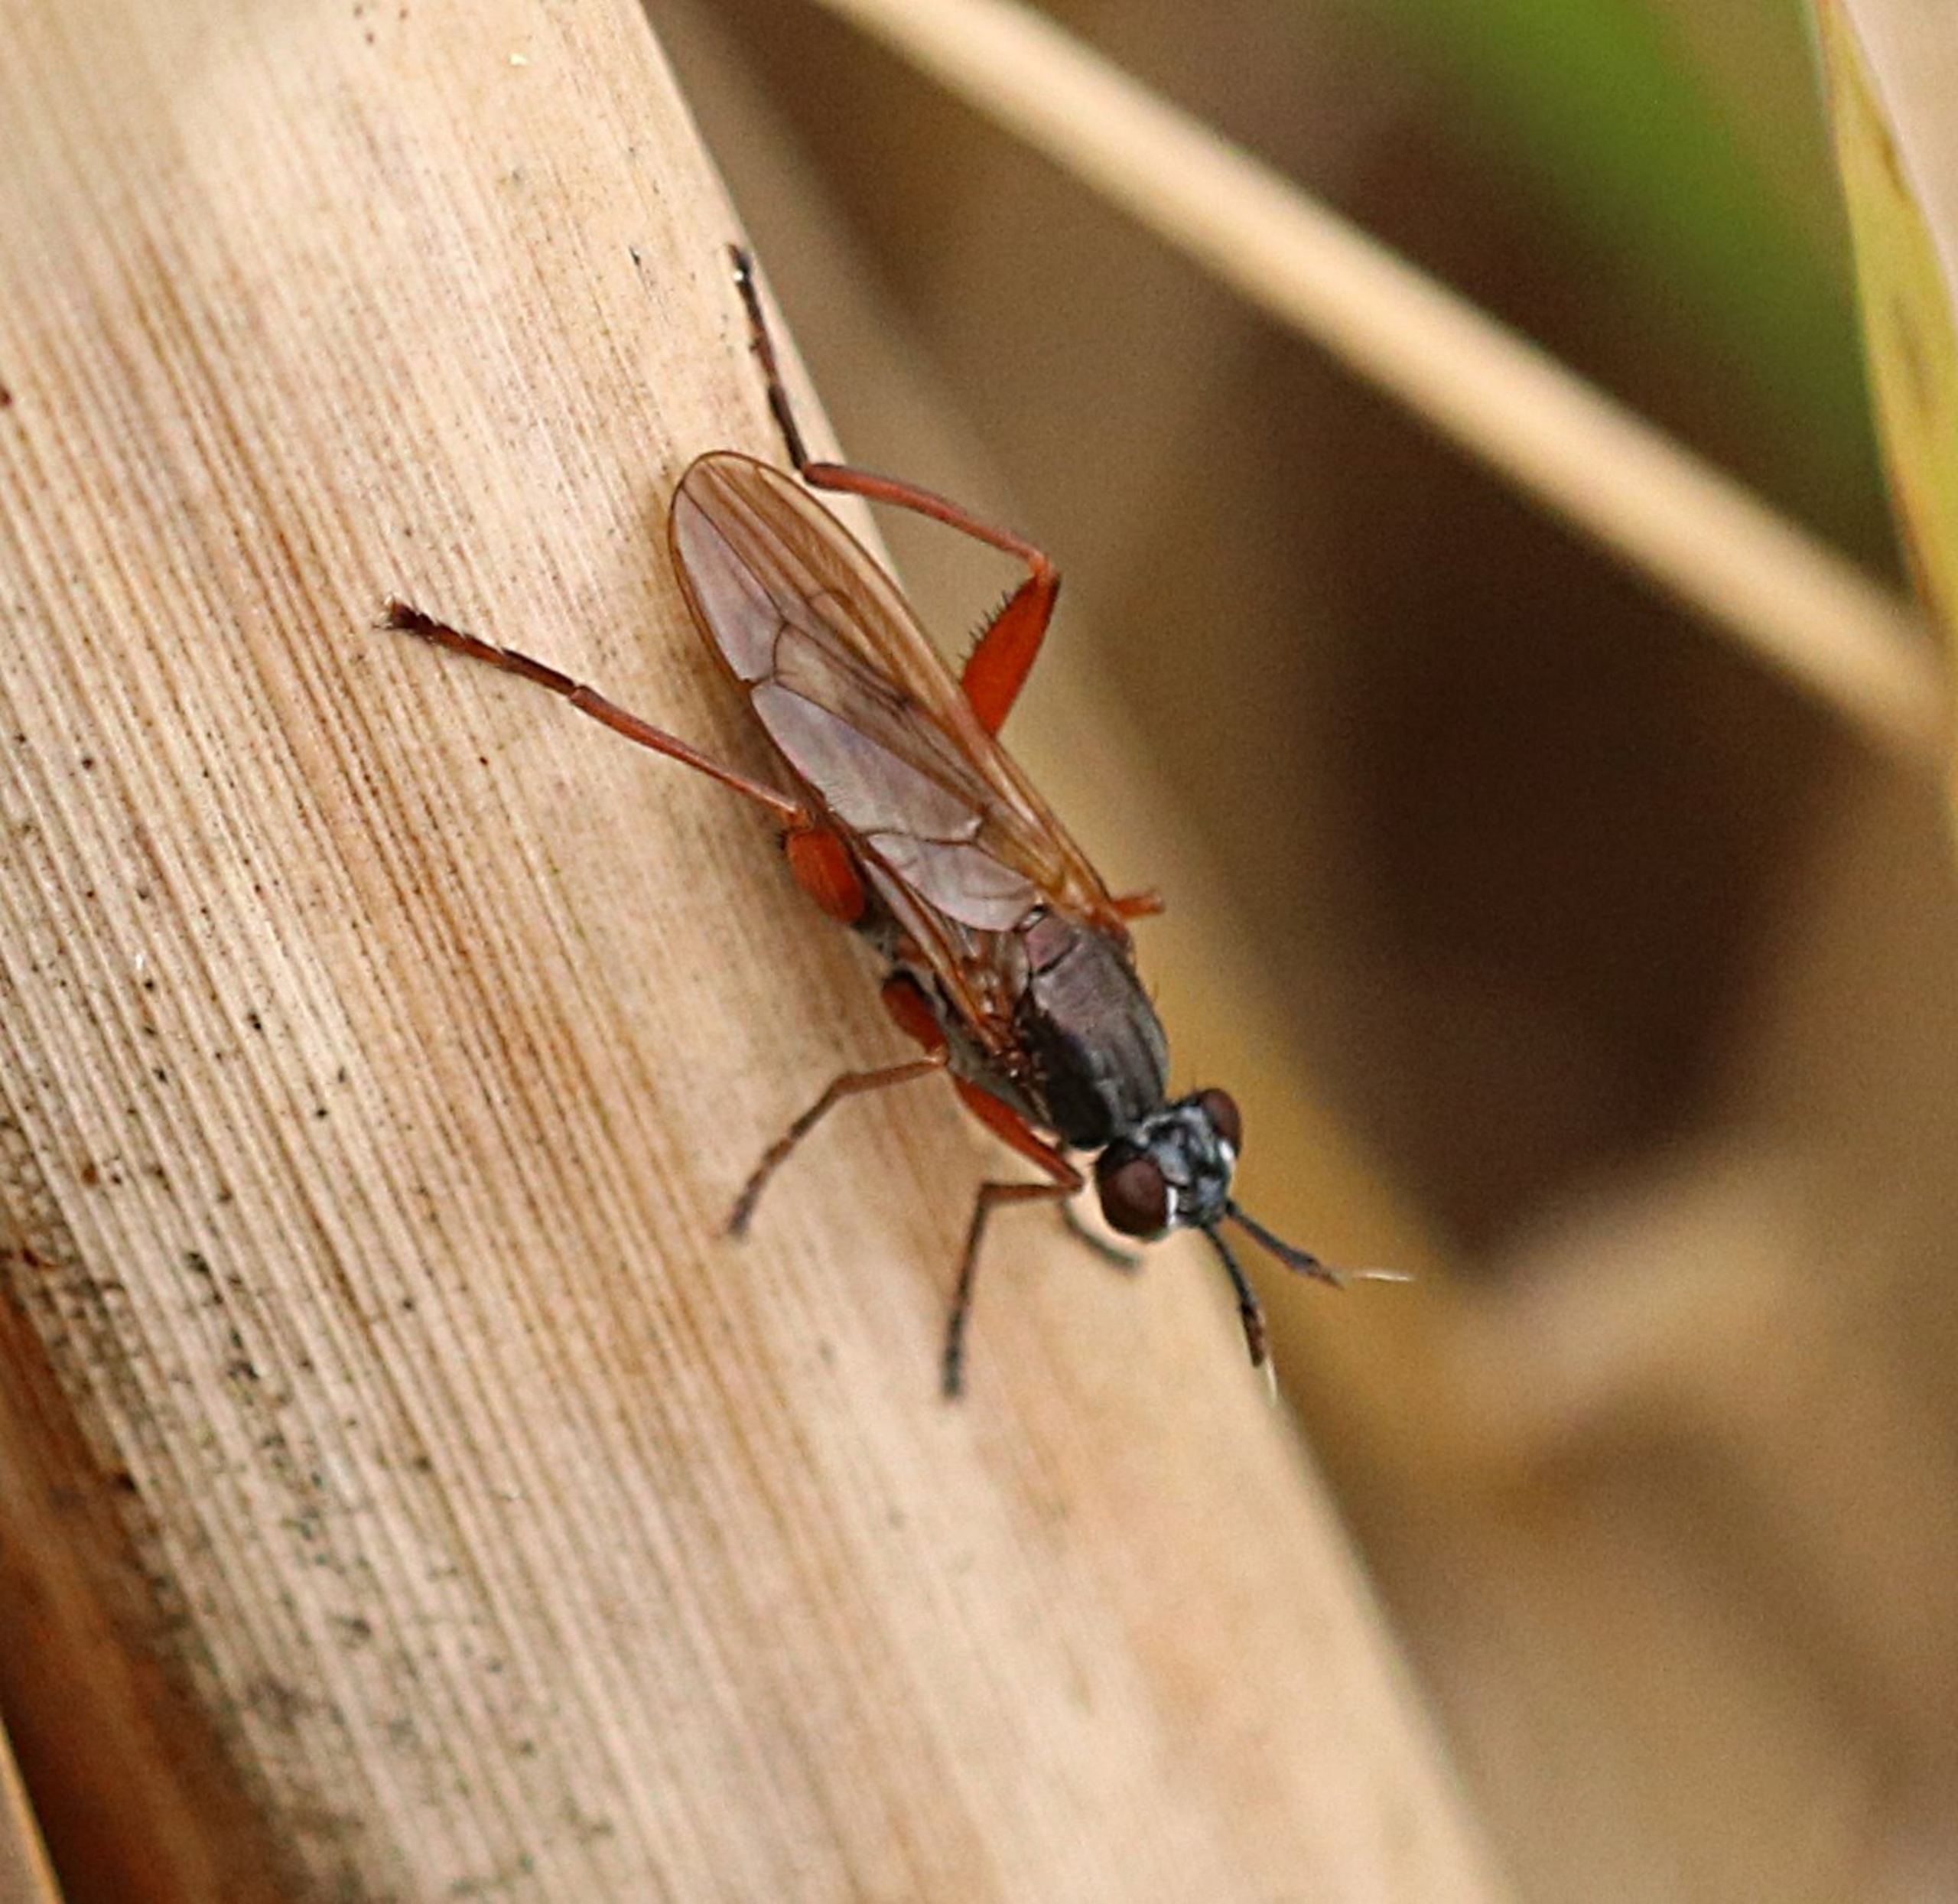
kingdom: Animalia
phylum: Arthropoda
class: Insecta
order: Diptera
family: Sciomyzidae
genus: Sepedon
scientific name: Sepedon sphegea
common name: Rødbenet kærflue
